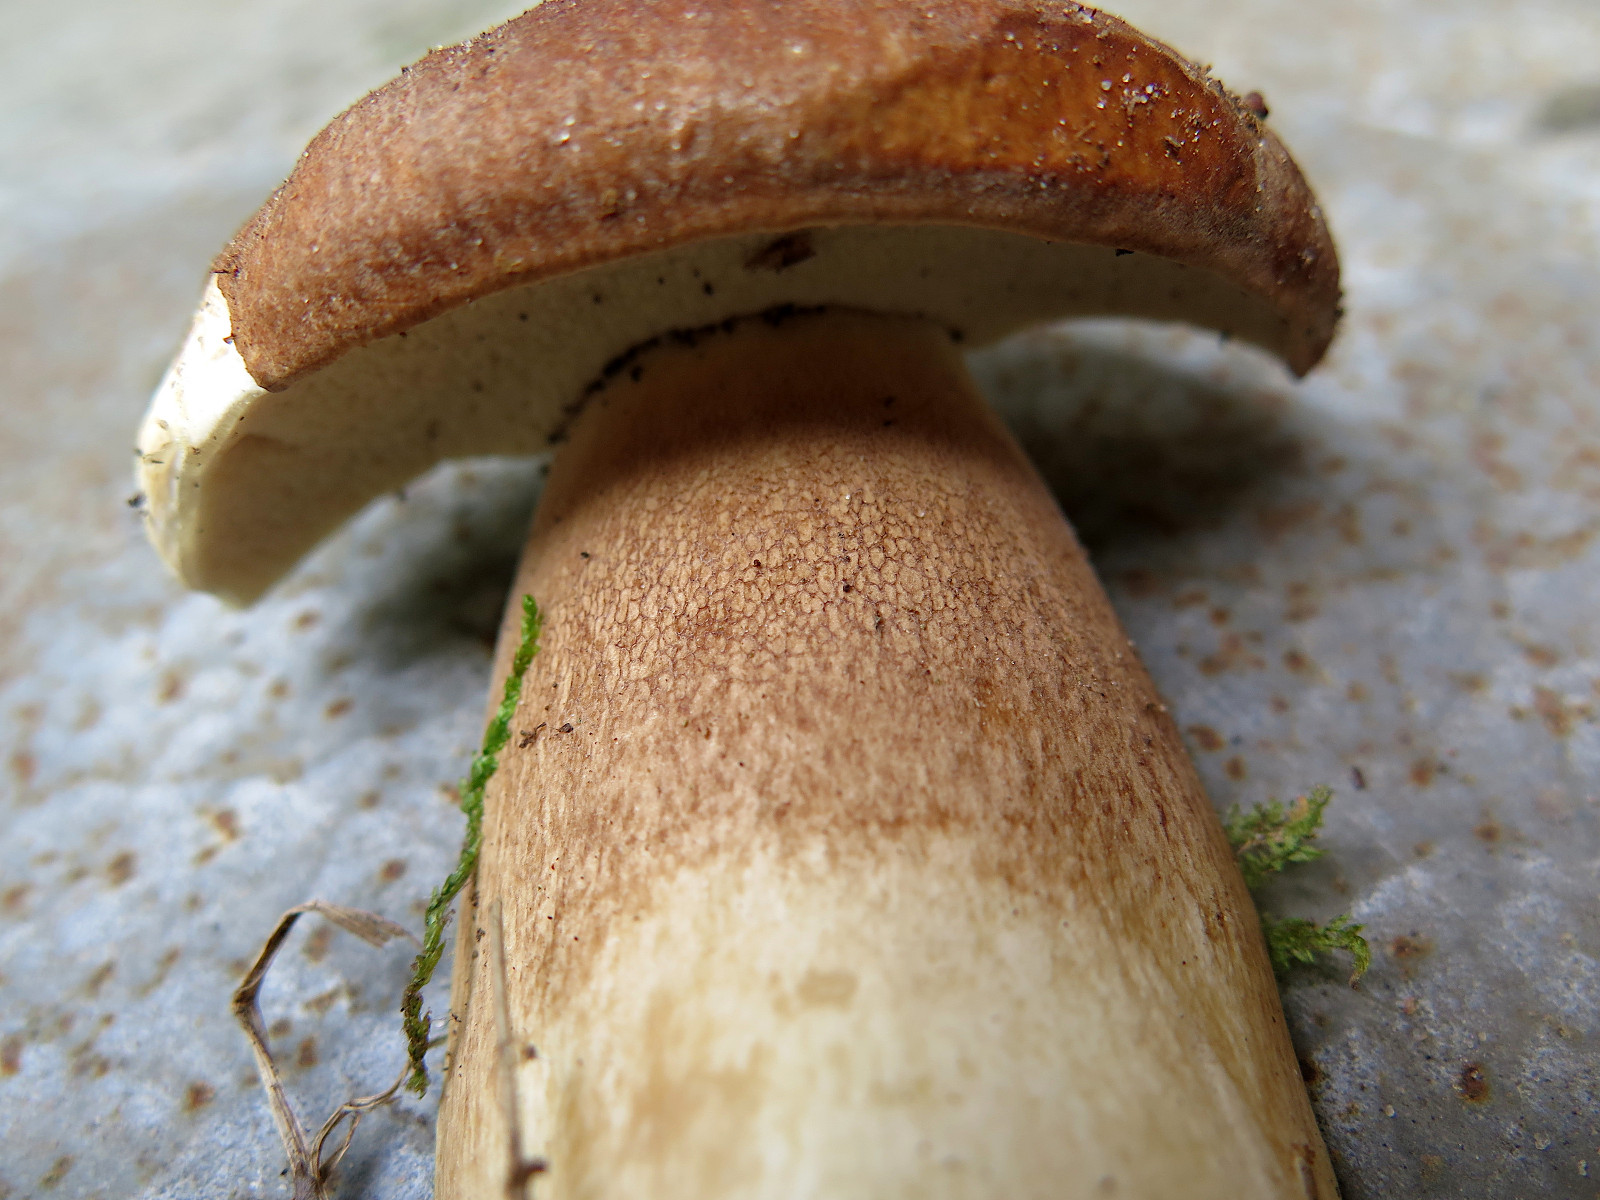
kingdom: Fungi
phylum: Basidiomycota
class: Agaricomycetes
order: Boletales
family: Boletaceae
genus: Boletus
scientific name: Boletus reticulatus
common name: sommer-rørhat
